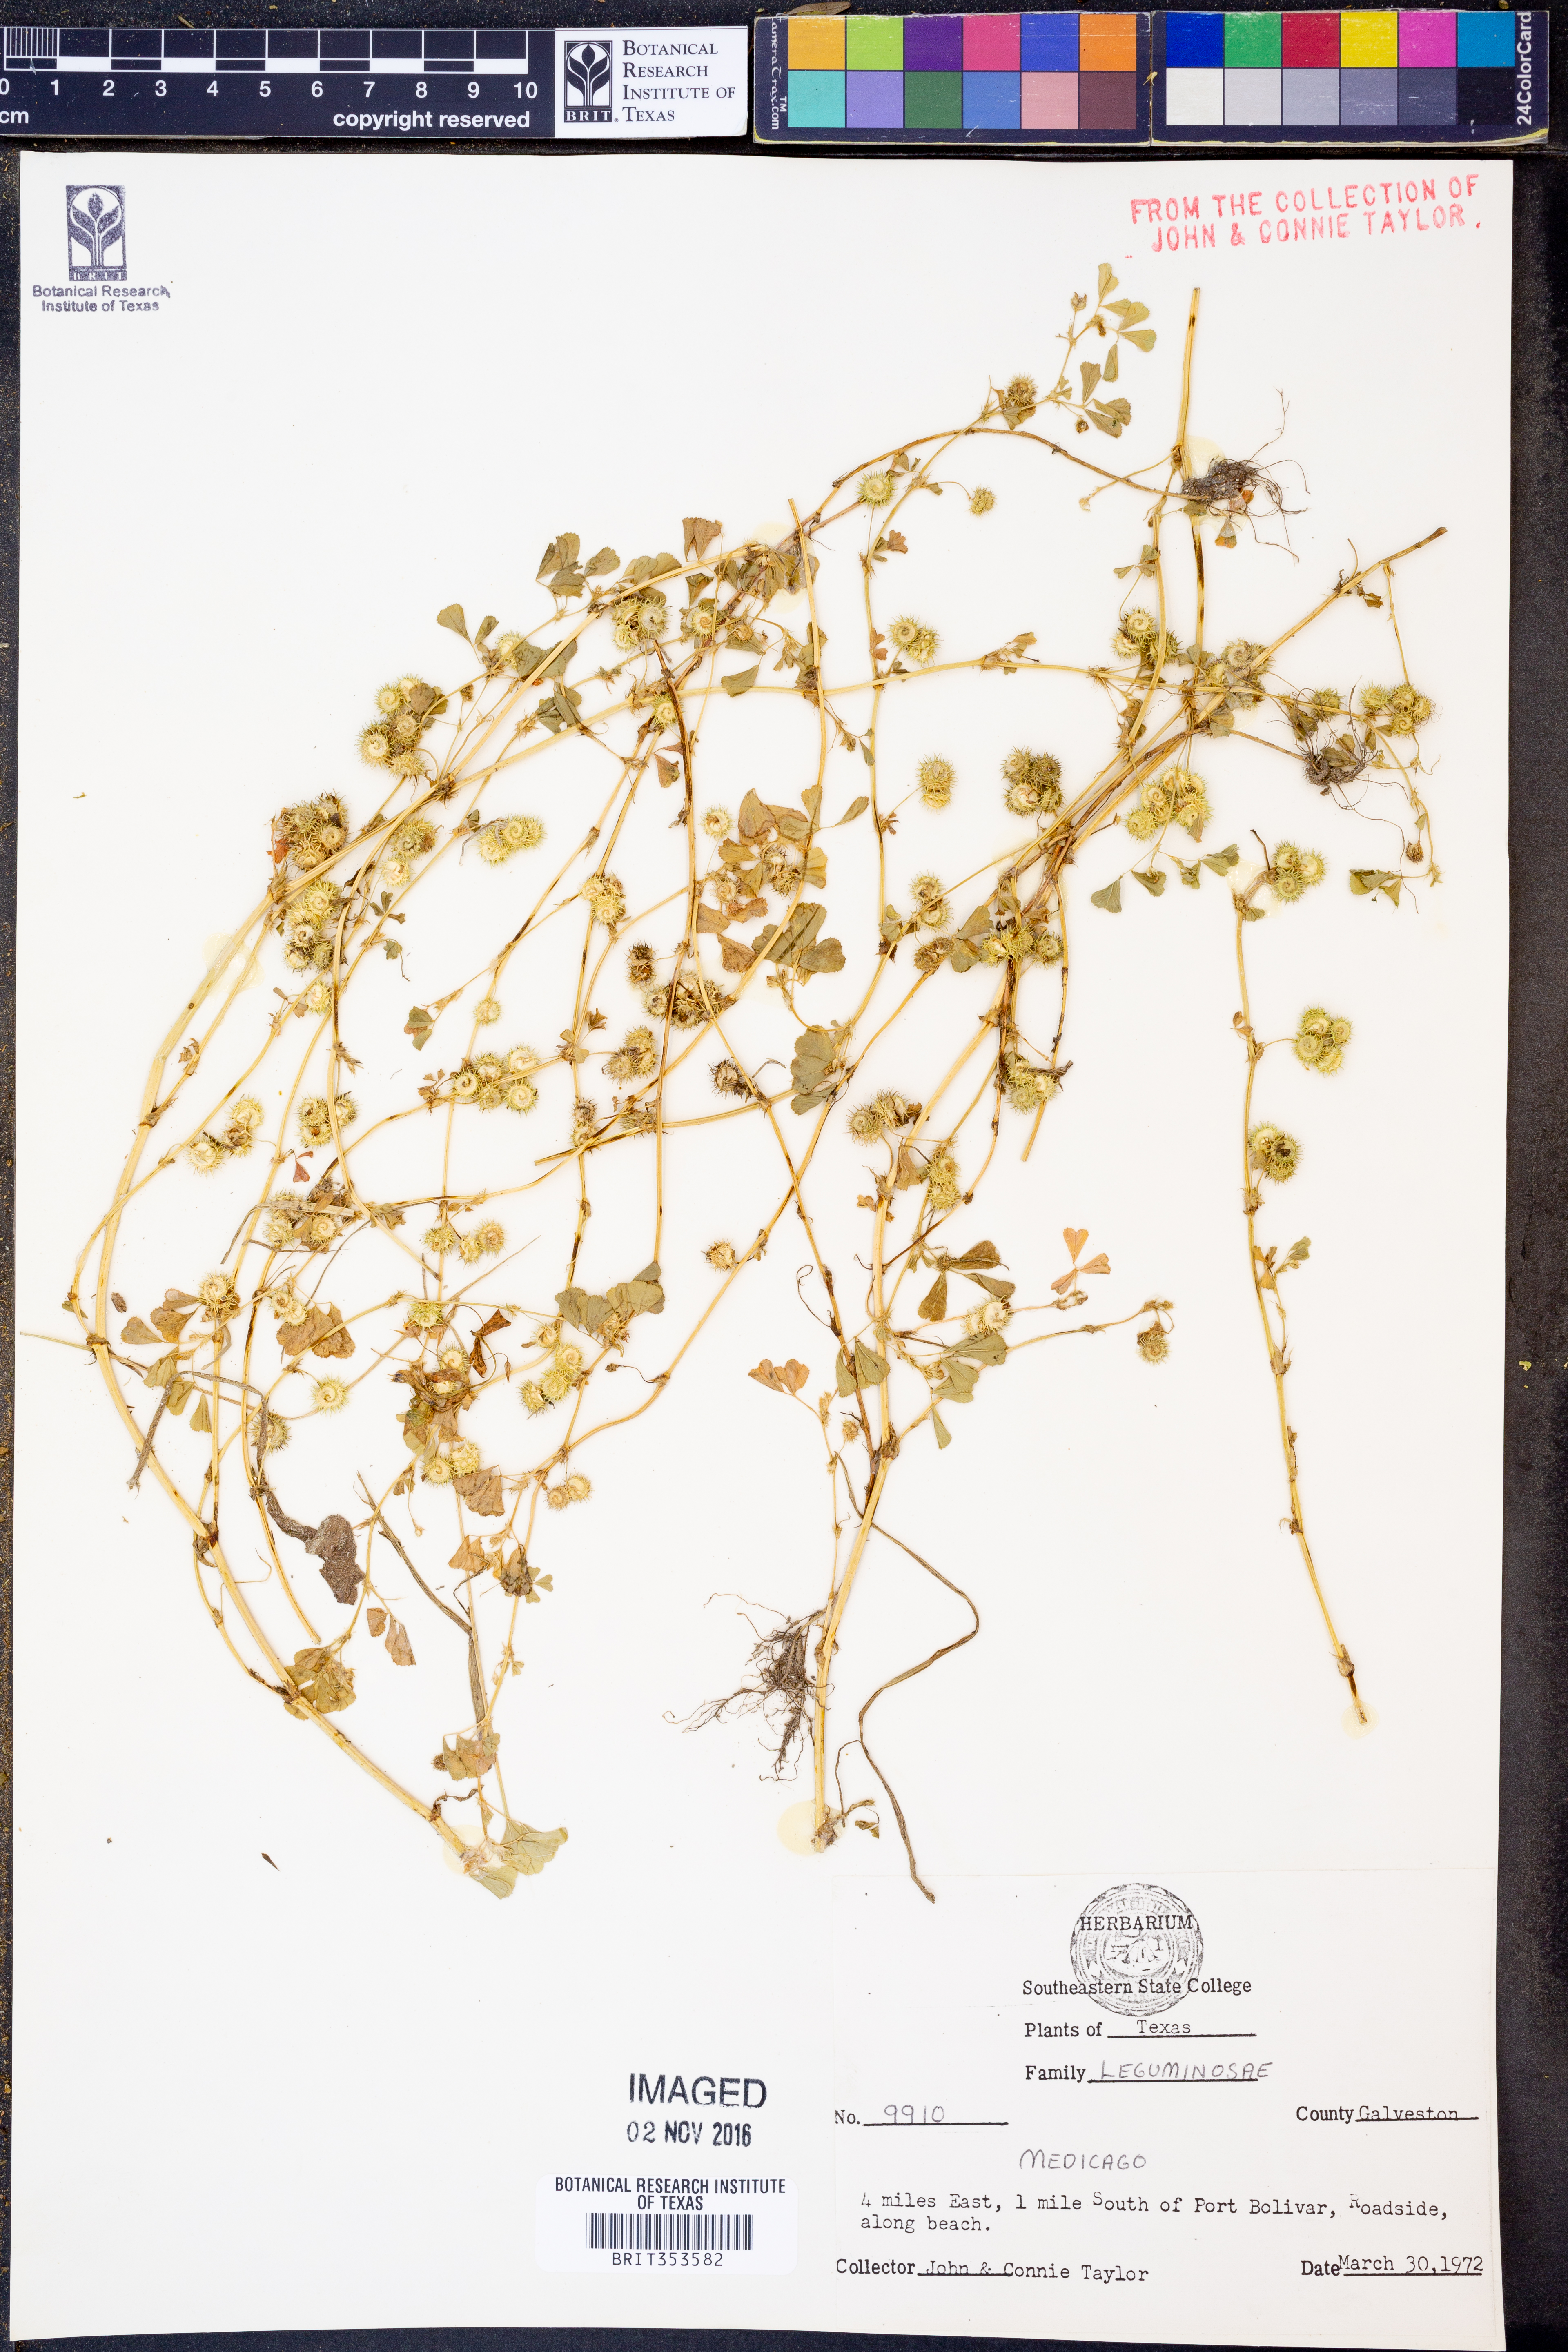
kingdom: Plantae
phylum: Tracheophyta
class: Magnoliopsida
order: Fabales
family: Fabaceae
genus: Medicago
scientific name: Medicago
